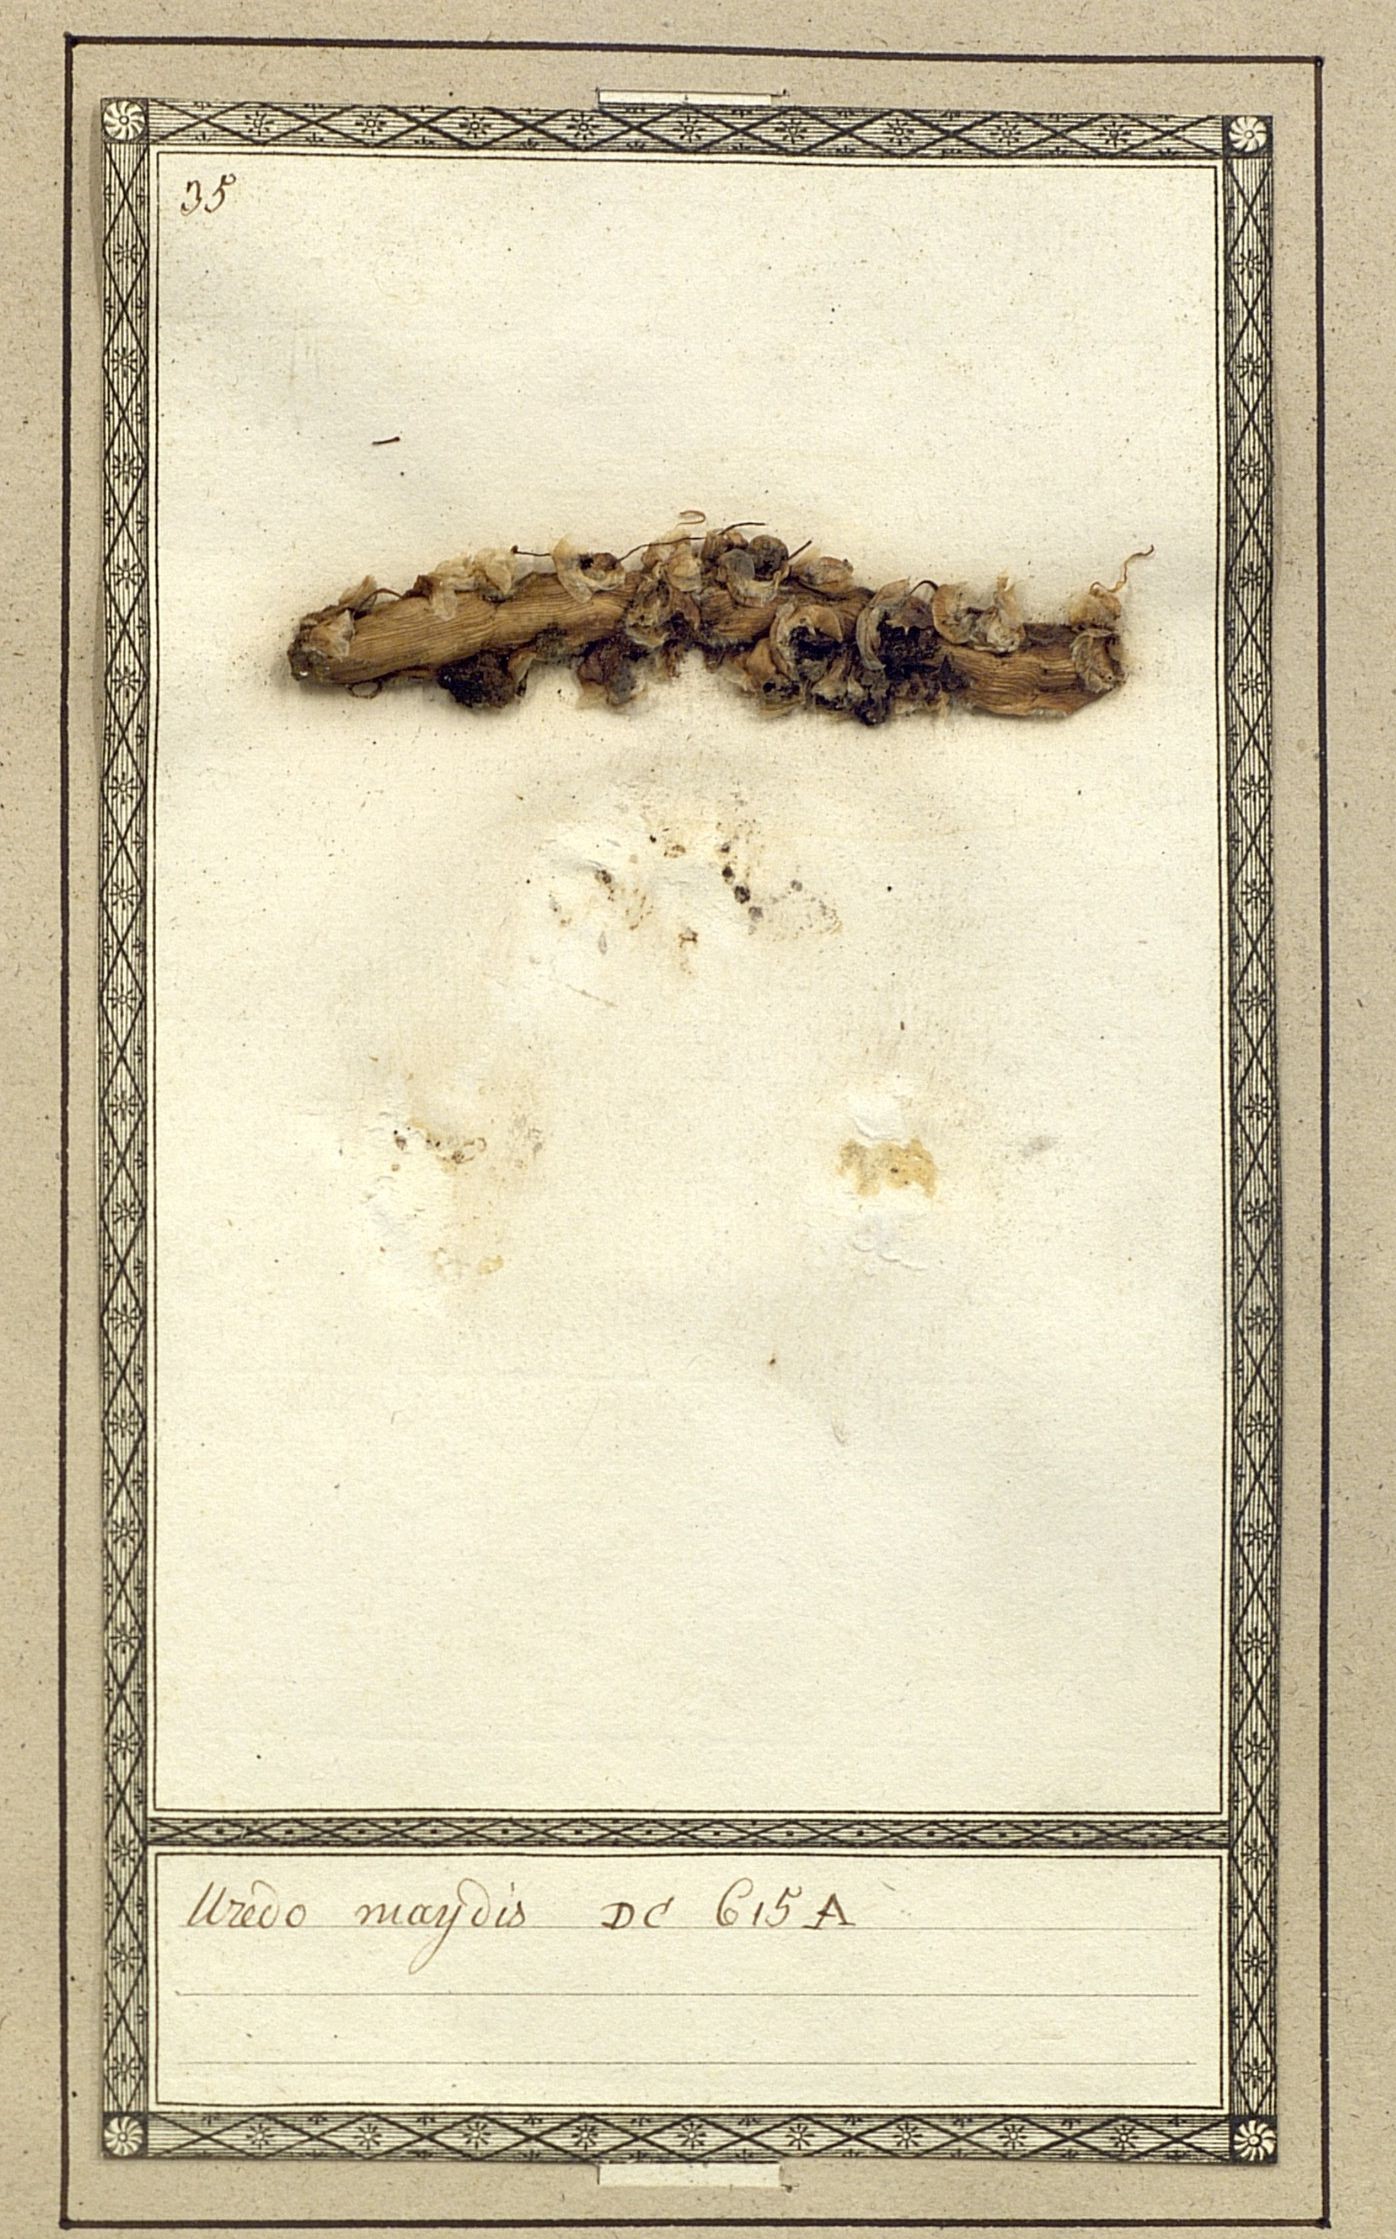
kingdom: Fungi
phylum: Basidiomycota
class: Ustilaginomycetes
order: Ustilaginales
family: Ustilaginaceae
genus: Mycosarcoma
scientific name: Mycosarcoma maydis
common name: Corn smut
